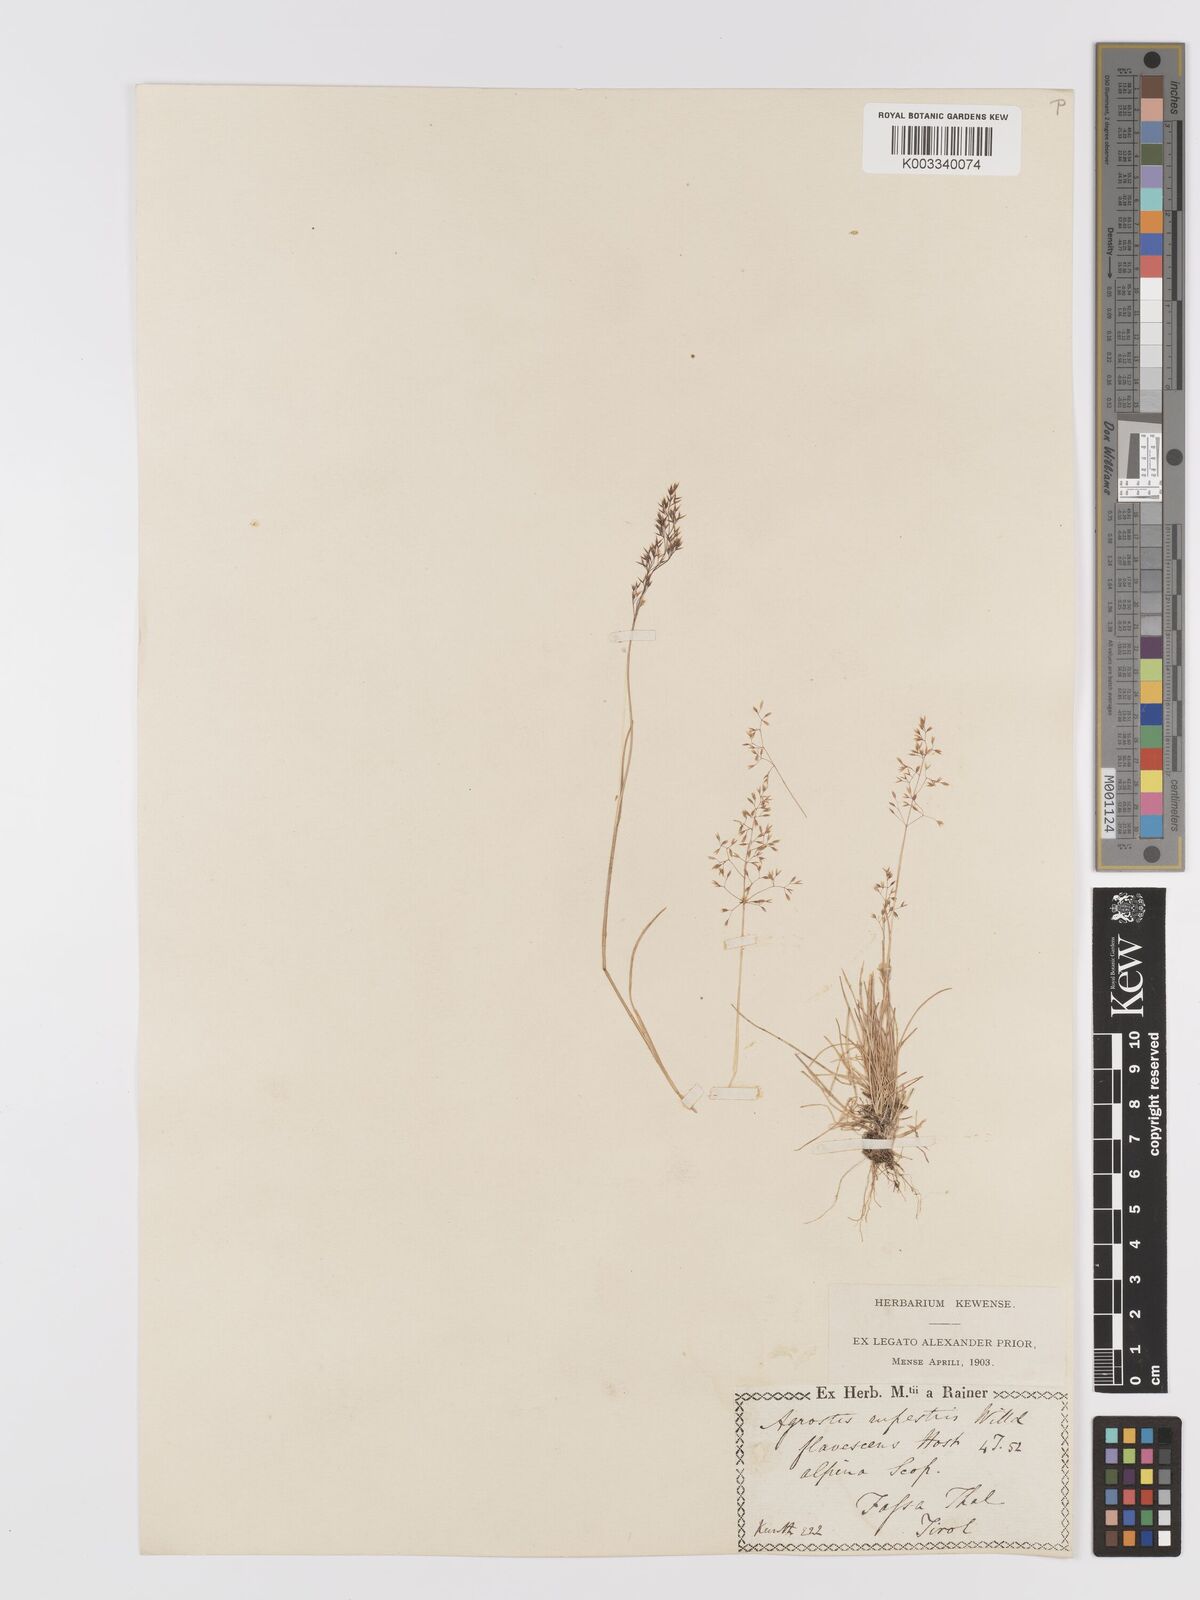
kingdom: Plantae
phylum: Tracheophyta
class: Liliopsida
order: Poales
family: Poaceae
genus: Agrostis
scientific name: Agrostis rupestris
